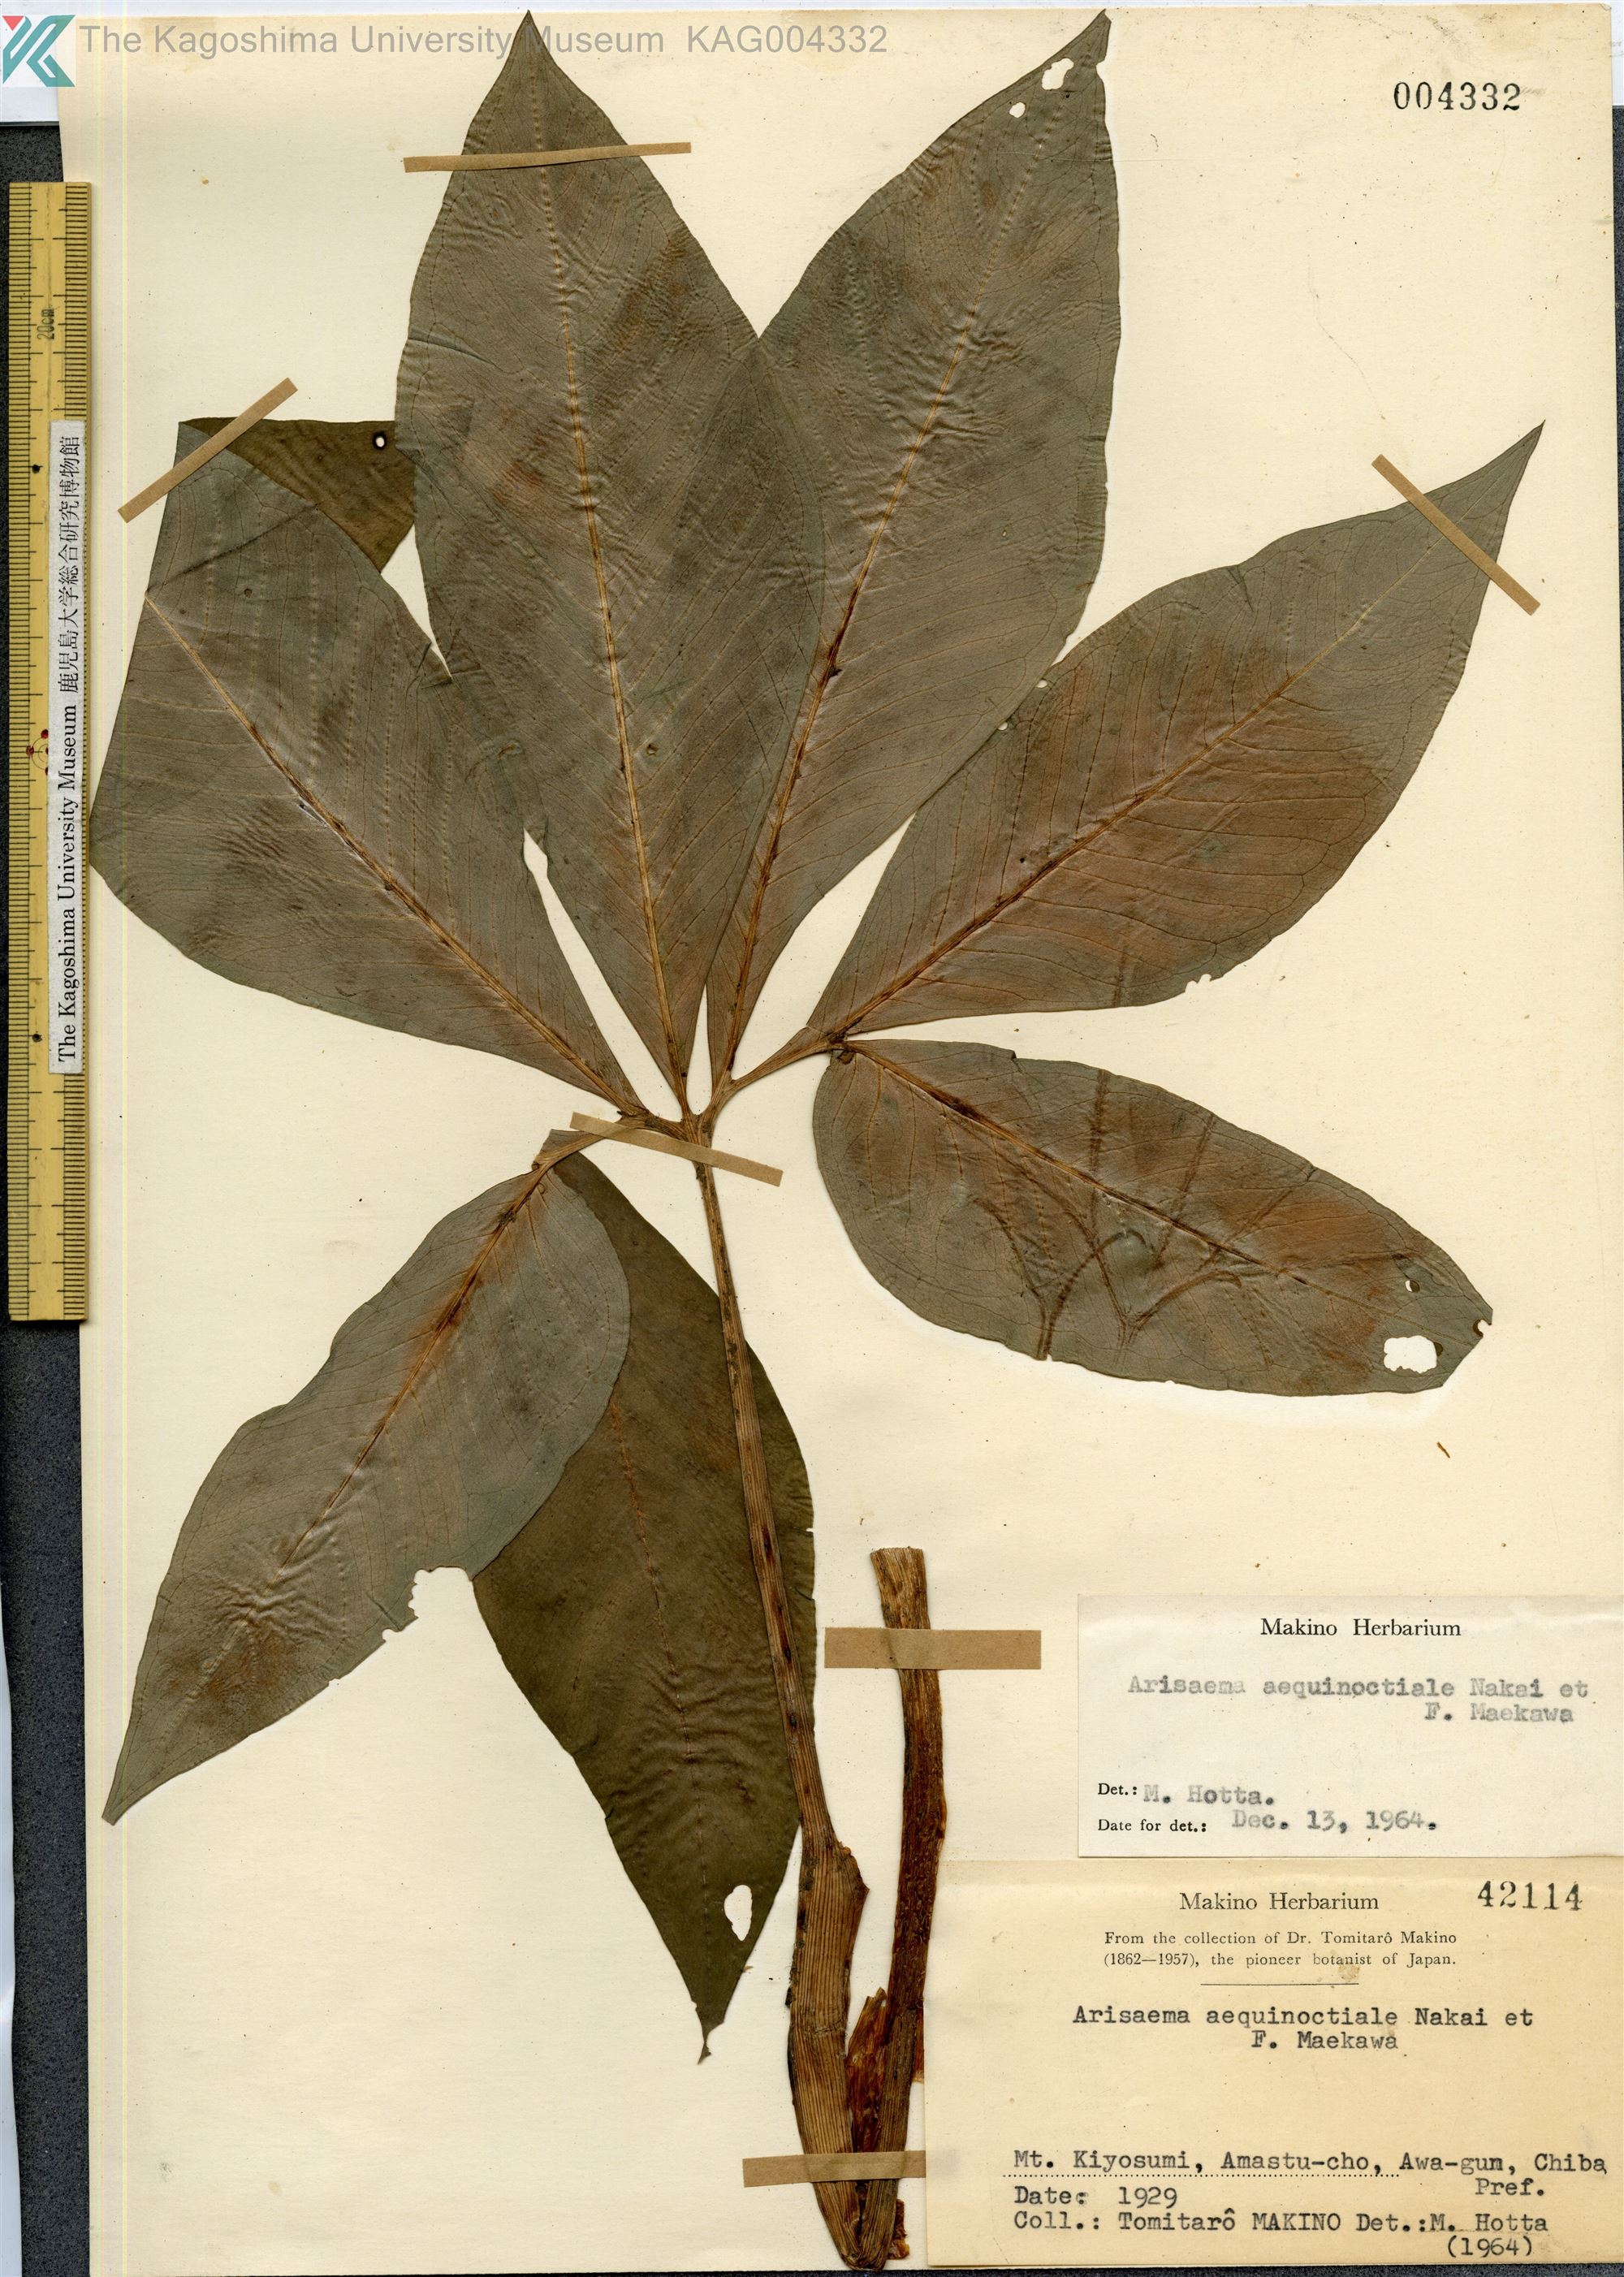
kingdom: Plantae
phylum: Tracheophyta
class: Liliopsida
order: Alismatales
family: Araceae
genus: Arisaema
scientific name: Arisaema aequinoctiale
